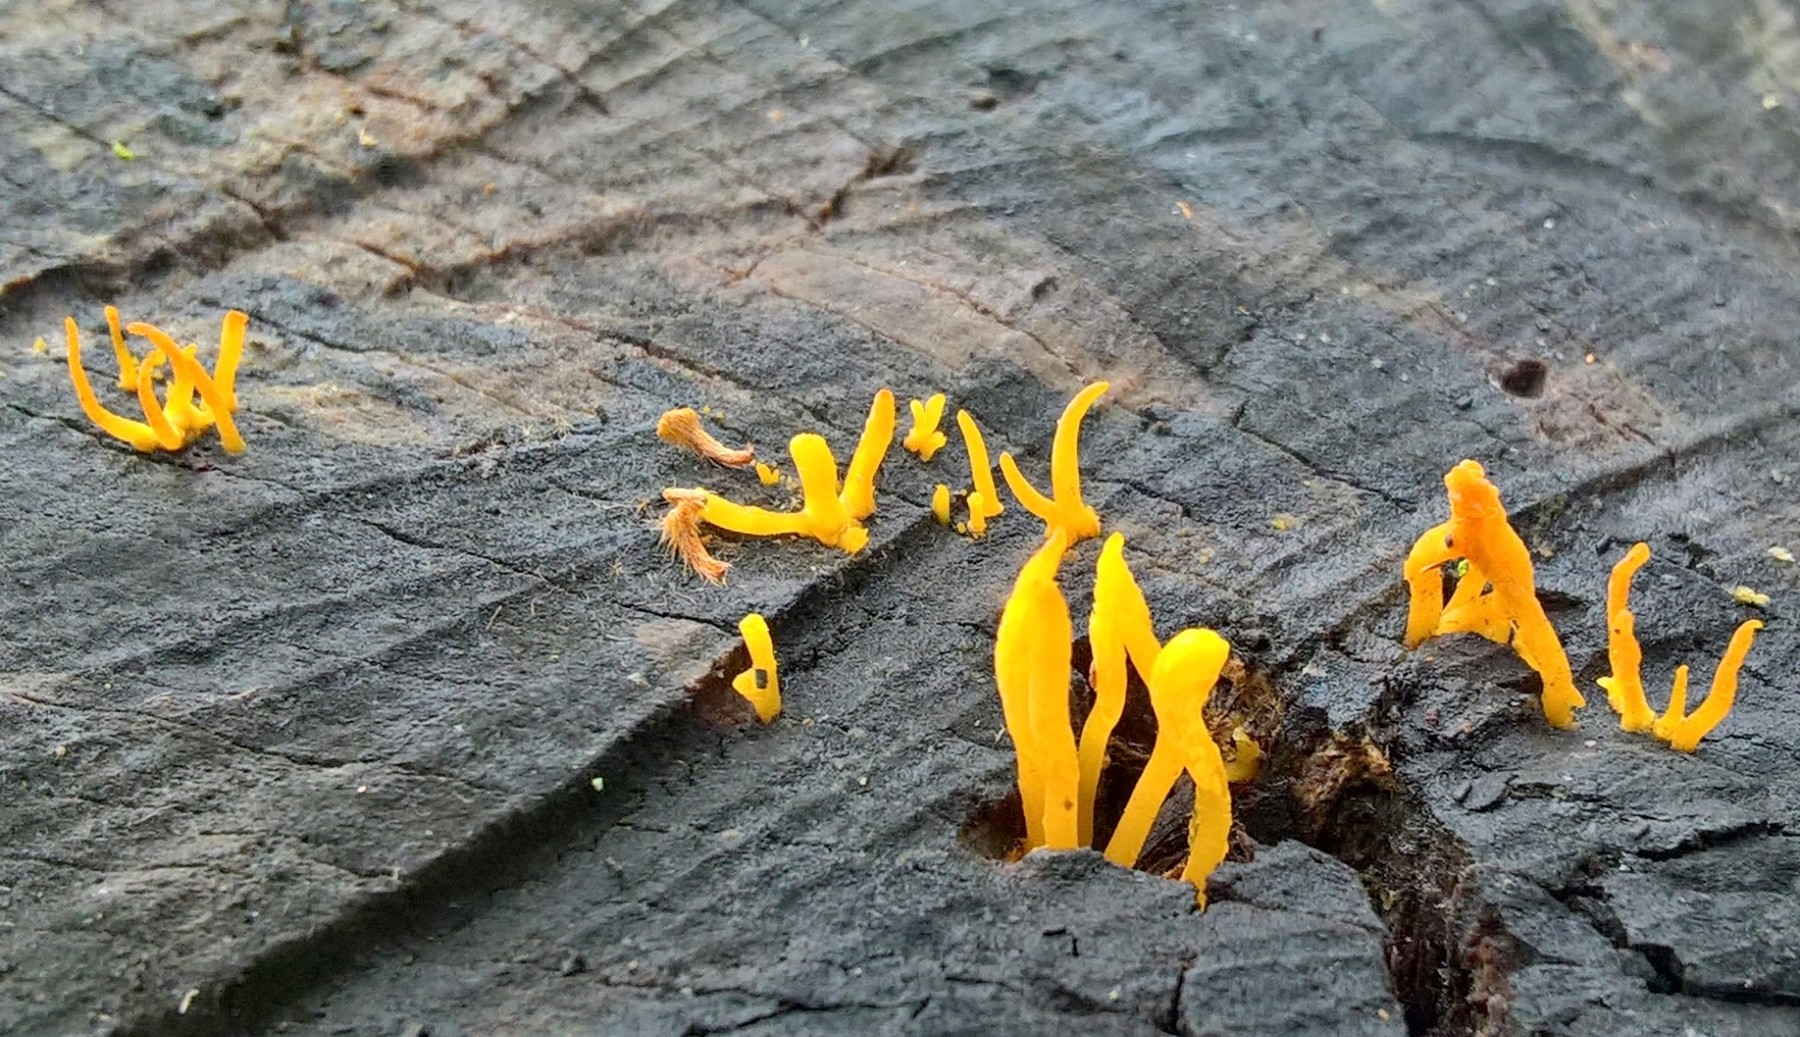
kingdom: Fungi
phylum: Basidiomycota
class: Dacrymycetes
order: Dacrymycetales
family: Dacrymycetaceae
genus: Calocera
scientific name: Calocera cornea
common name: liden guldgaffel
